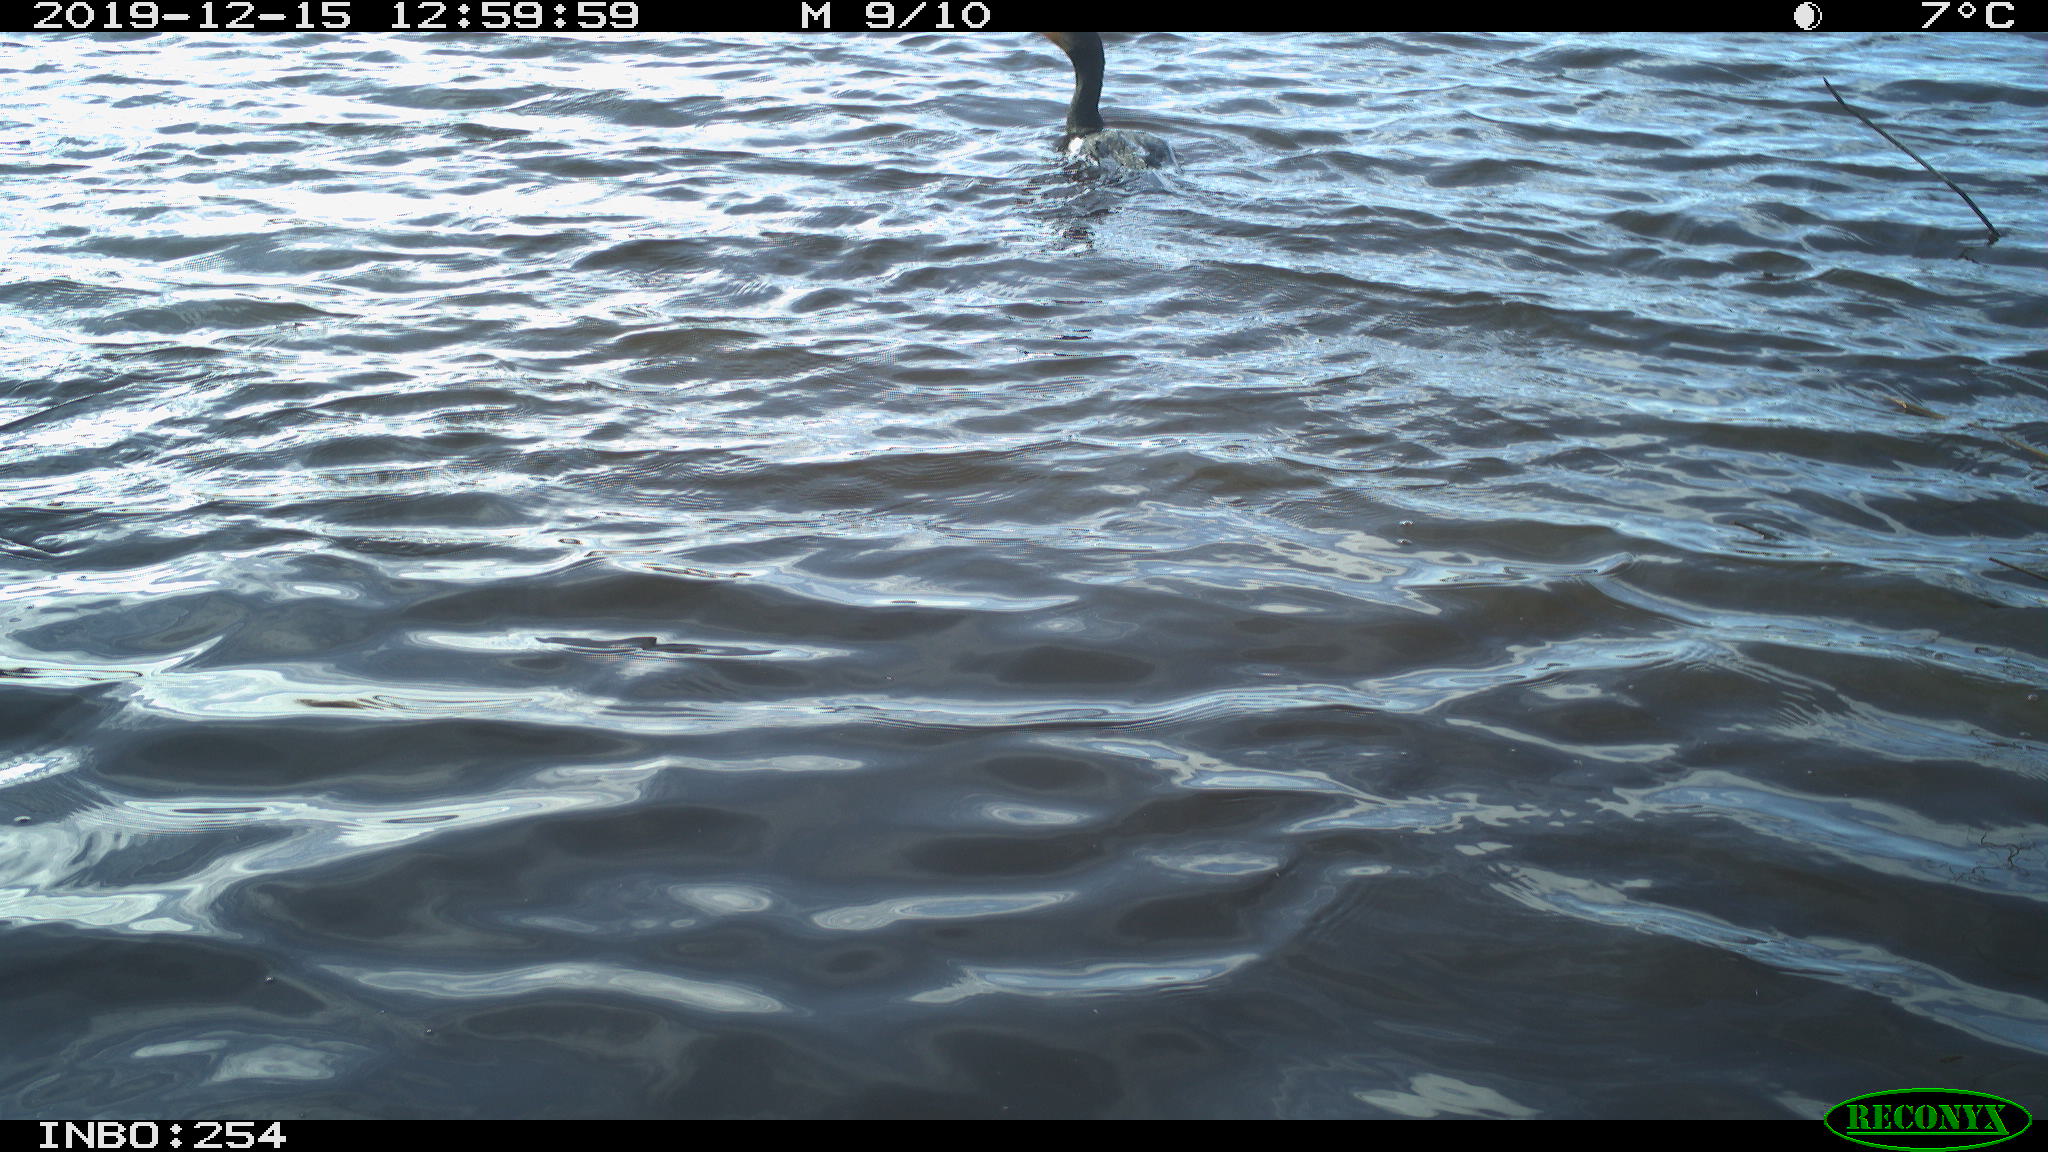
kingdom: Animalia
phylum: Chordata
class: Aves
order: Suliformes
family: Phalacrocoracidae
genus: Phalacrocorax
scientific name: Phalacrocorax carbo
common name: Great cormorant
